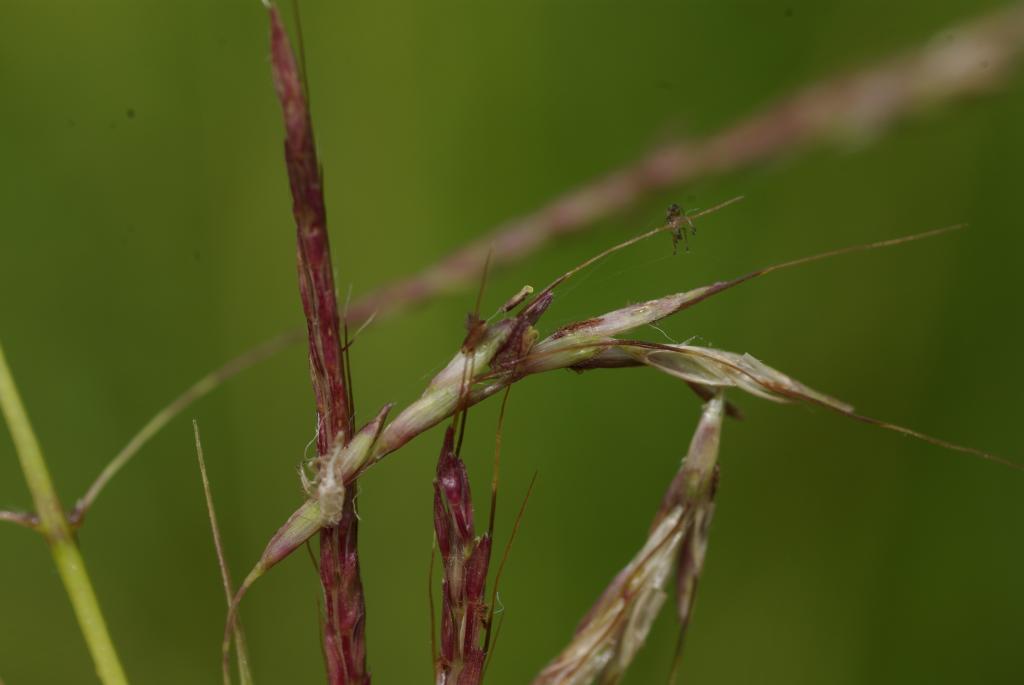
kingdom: Plantae
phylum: Tracheophyta
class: Liliopsida
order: Poales
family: Poaceae
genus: Bothriochloa
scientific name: Bothriochloa bladhii
